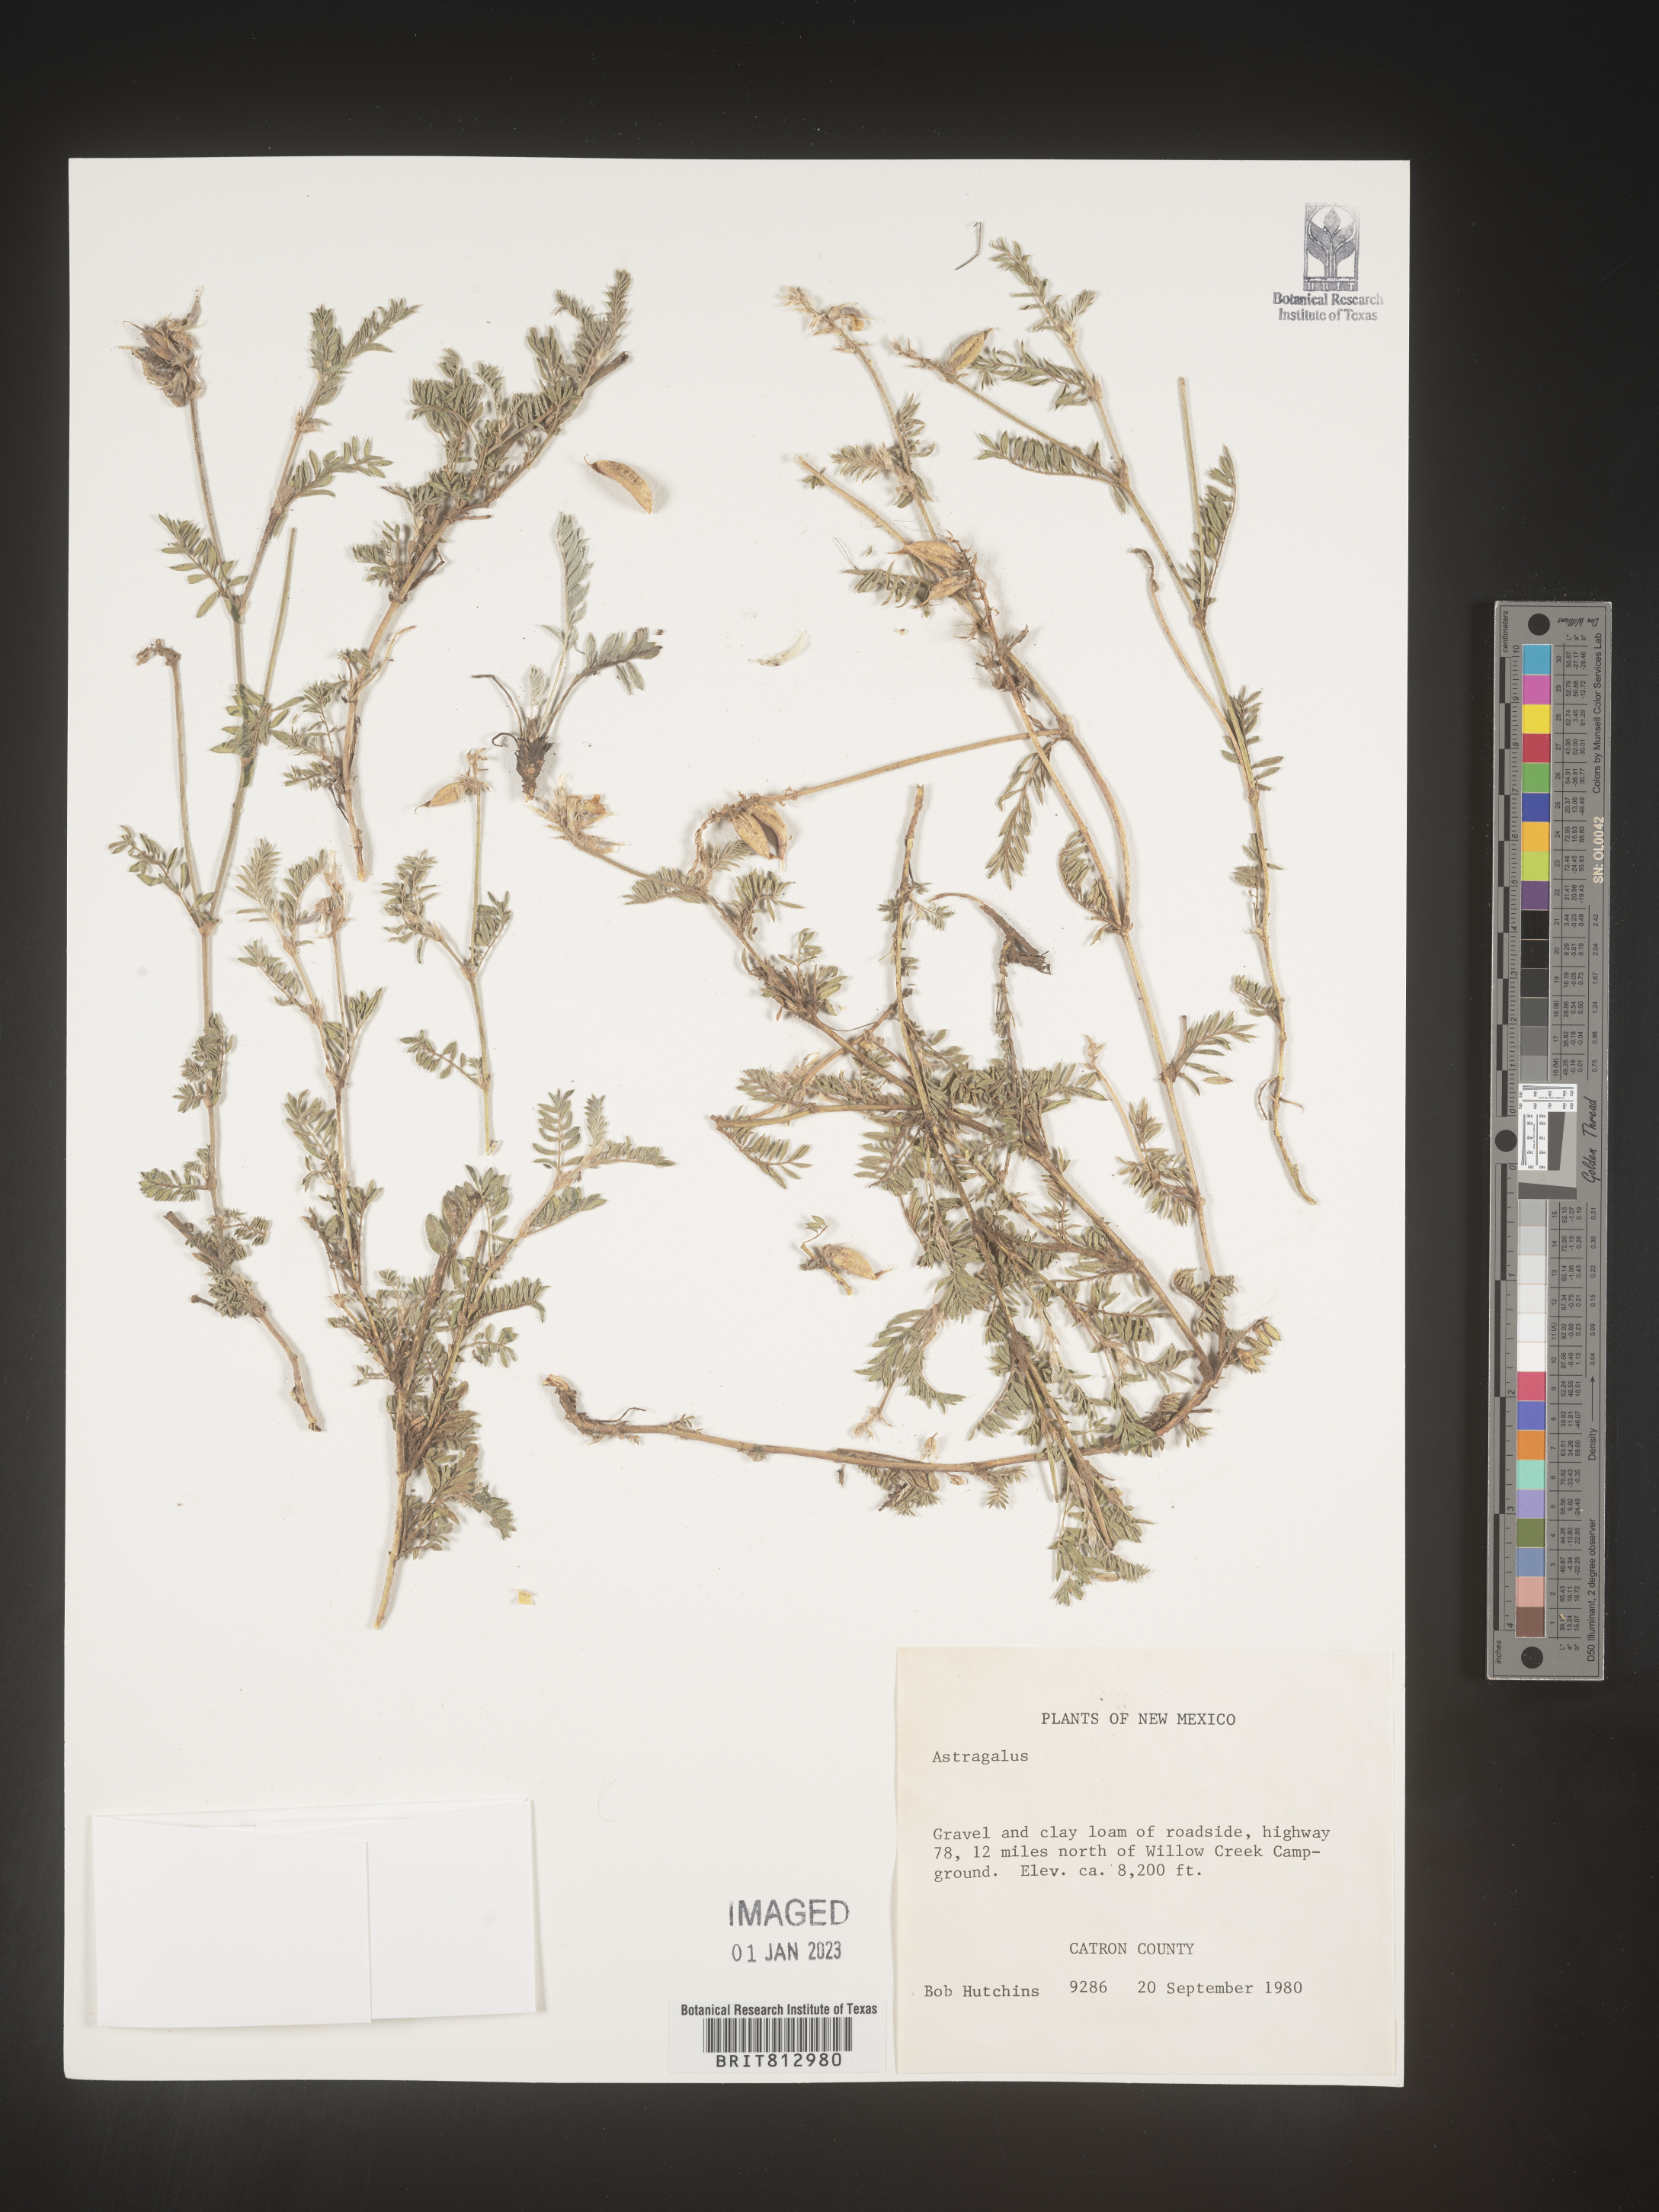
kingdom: Plantae
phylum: Tracheophyta
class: Magnoliopsida
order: Fabales
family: Fabaceae
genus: Astragalus
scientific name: Astragalus
